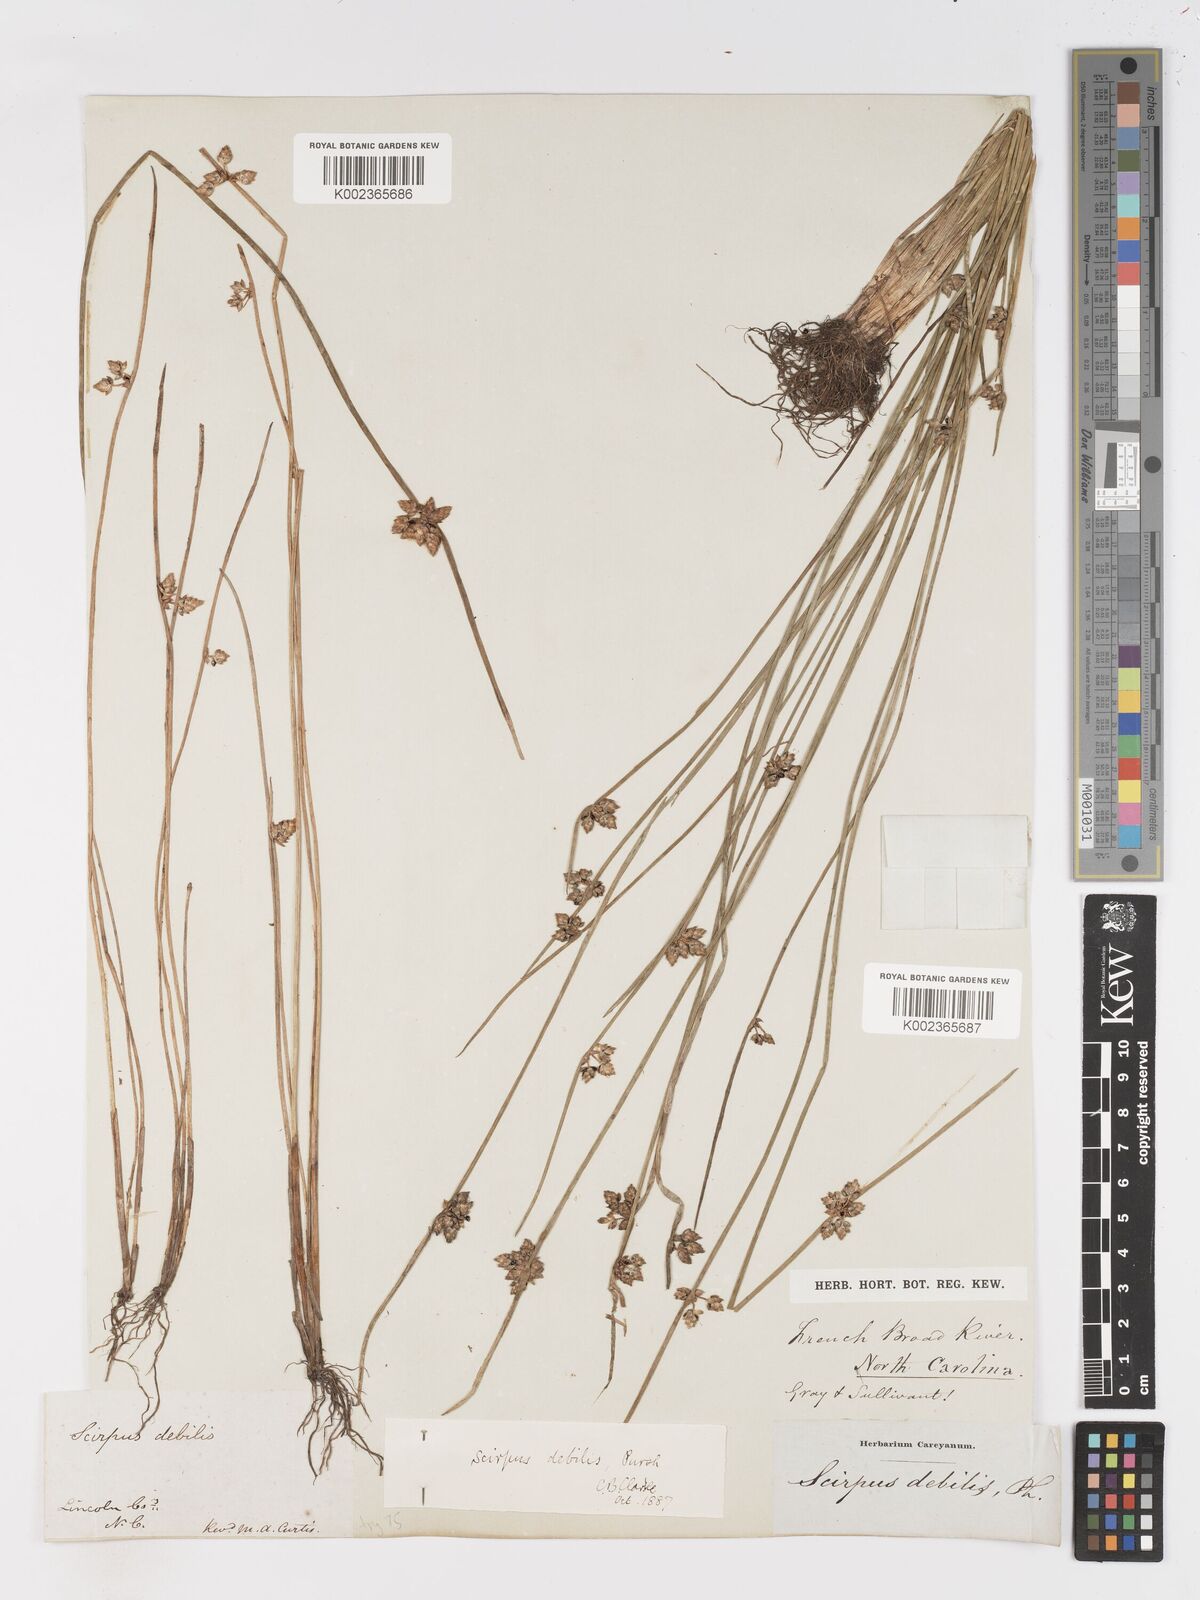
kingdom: Plantae
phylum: Tracheophyta
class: Liliopsida
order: Poales
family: Cyperaceae
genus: Schoenoplectiella
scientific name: Schoenoplectiella purshiana
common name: Weak-stalked bulrush
